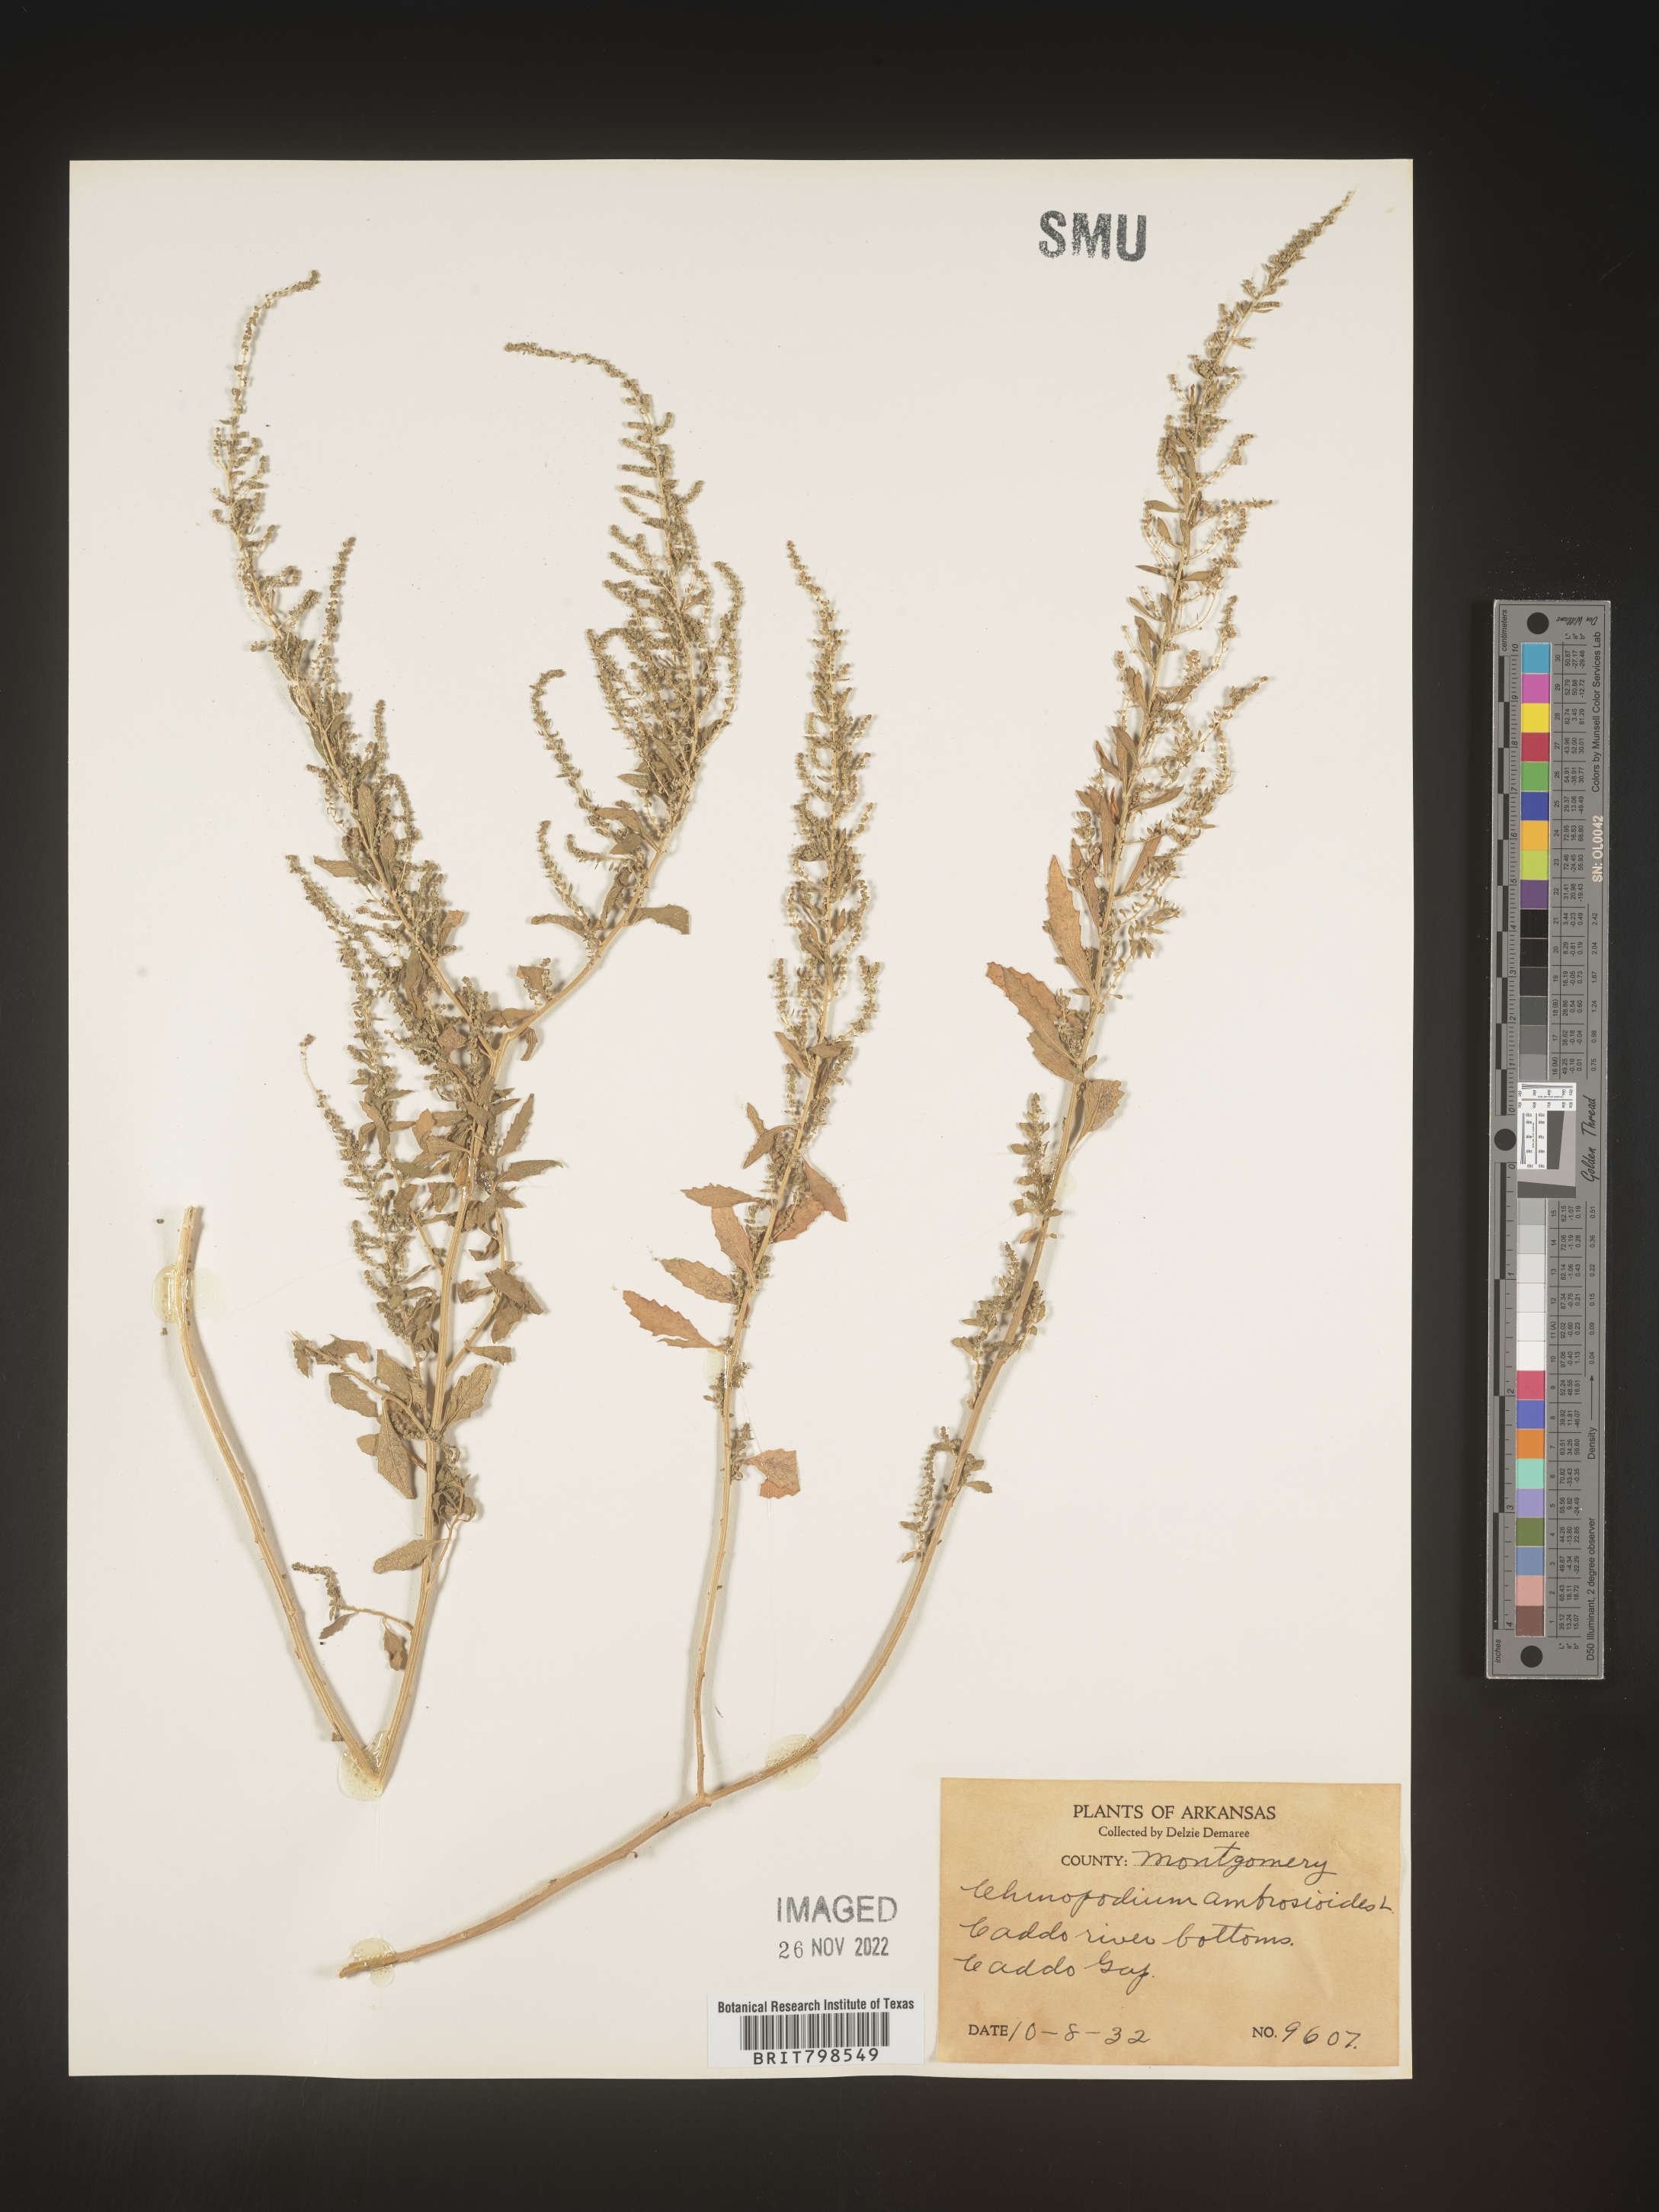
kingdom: Plantae
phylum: Tracheophyta
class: Magnoliopsida
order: Caryophyllales
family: Amaranthaceae
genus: Dysphania
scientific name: Dysphania ambrosioides
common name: Wormseed
